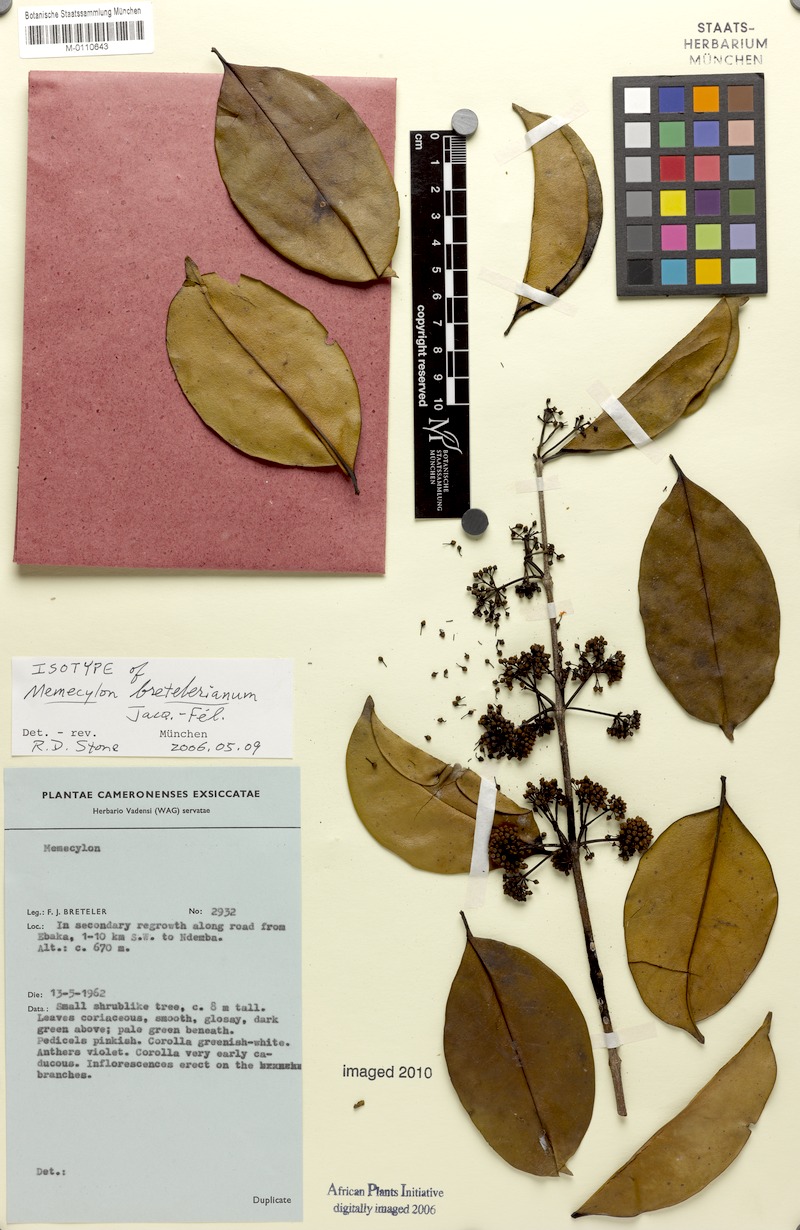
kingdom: Plantae
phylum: Tracheophyta
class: Magnoliopsida
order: Myrtales
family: Melastomataceae
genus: Memecylon
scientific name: Memecylon bretelerianum
